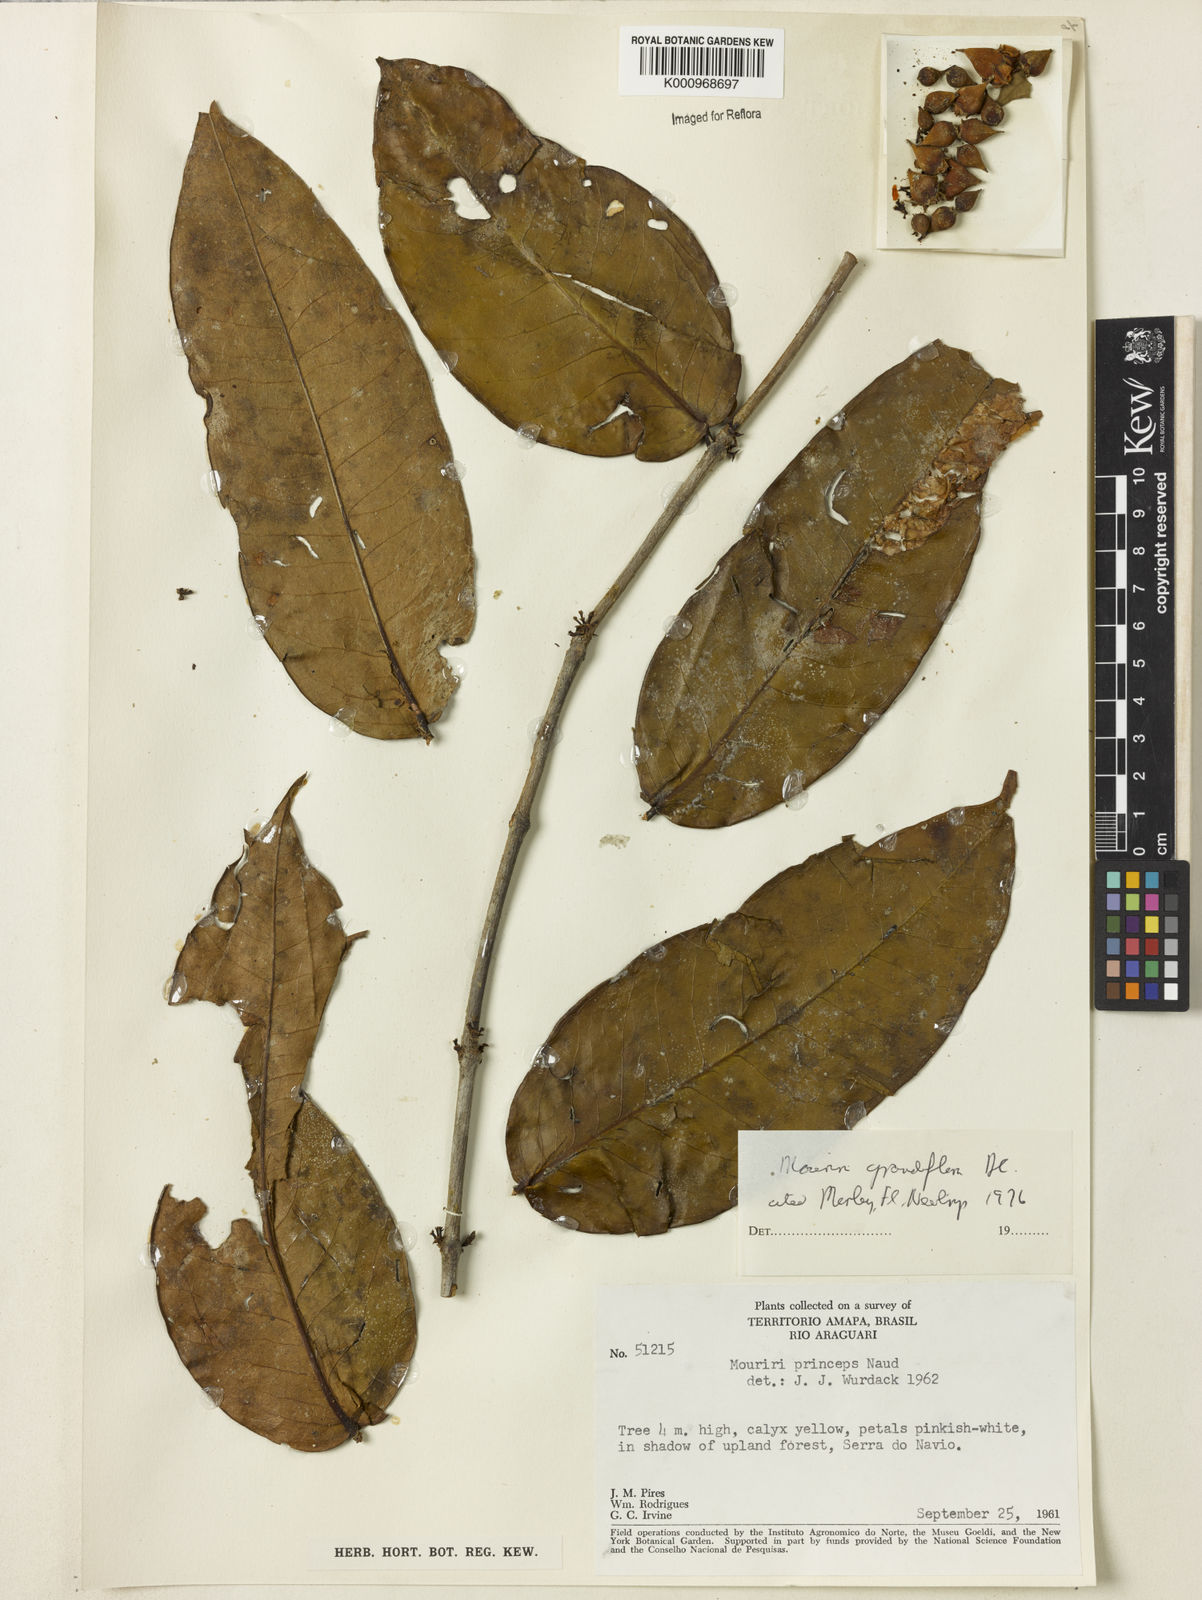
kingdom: Plantae
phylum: Tracheophyta
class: Magnoliopsida
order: Myrtales
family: Melastomataceae
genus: Mouriri
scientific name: Mouriri grandiflora
